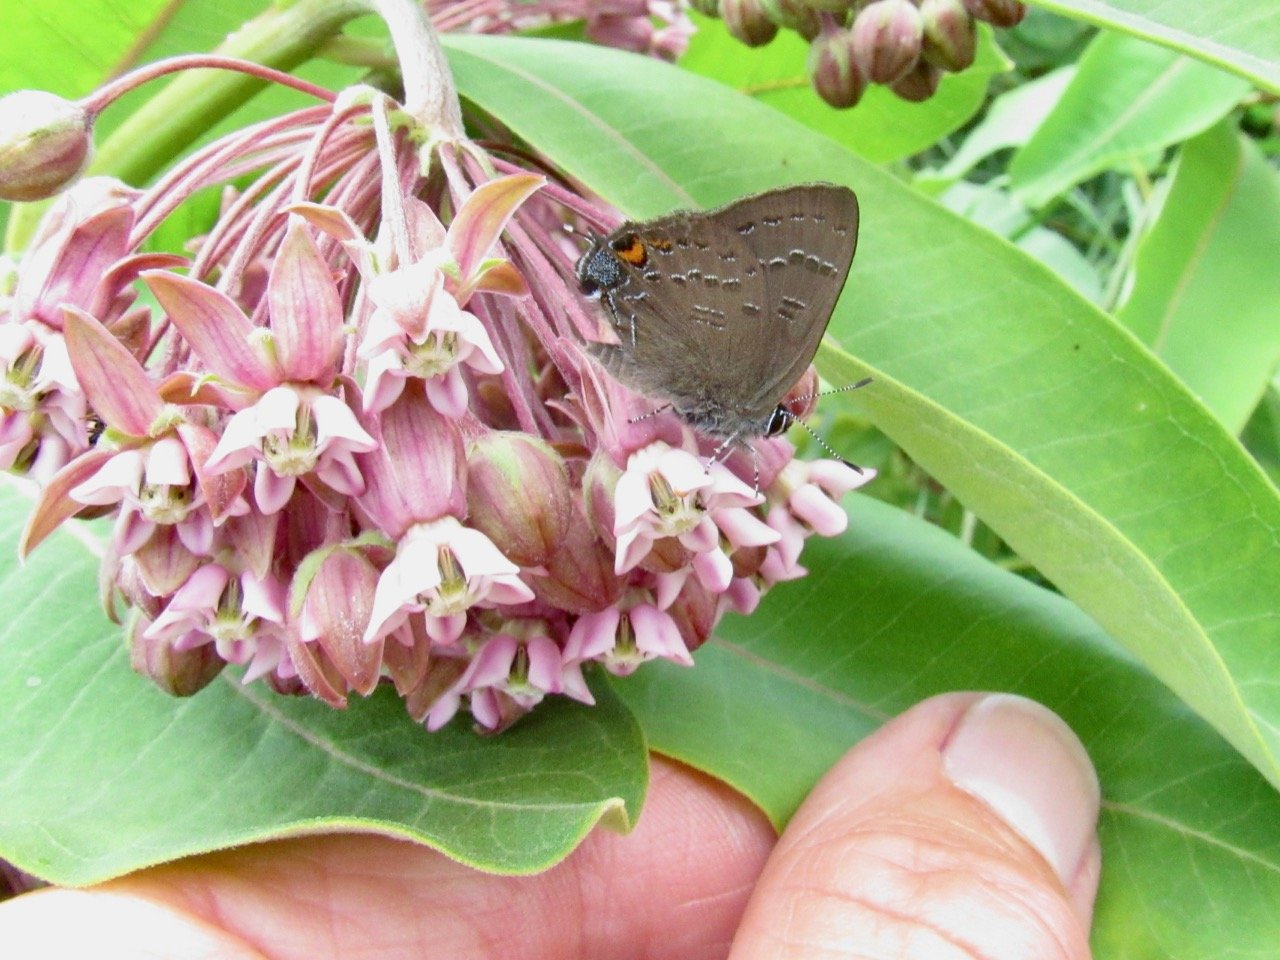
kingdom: Animalia
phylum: Arthropoda
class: Insecta
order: Lepidoptera
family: Lycaenidae
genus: Satyrium
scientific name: Satyrium calanus
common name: Banded Hairstreak
